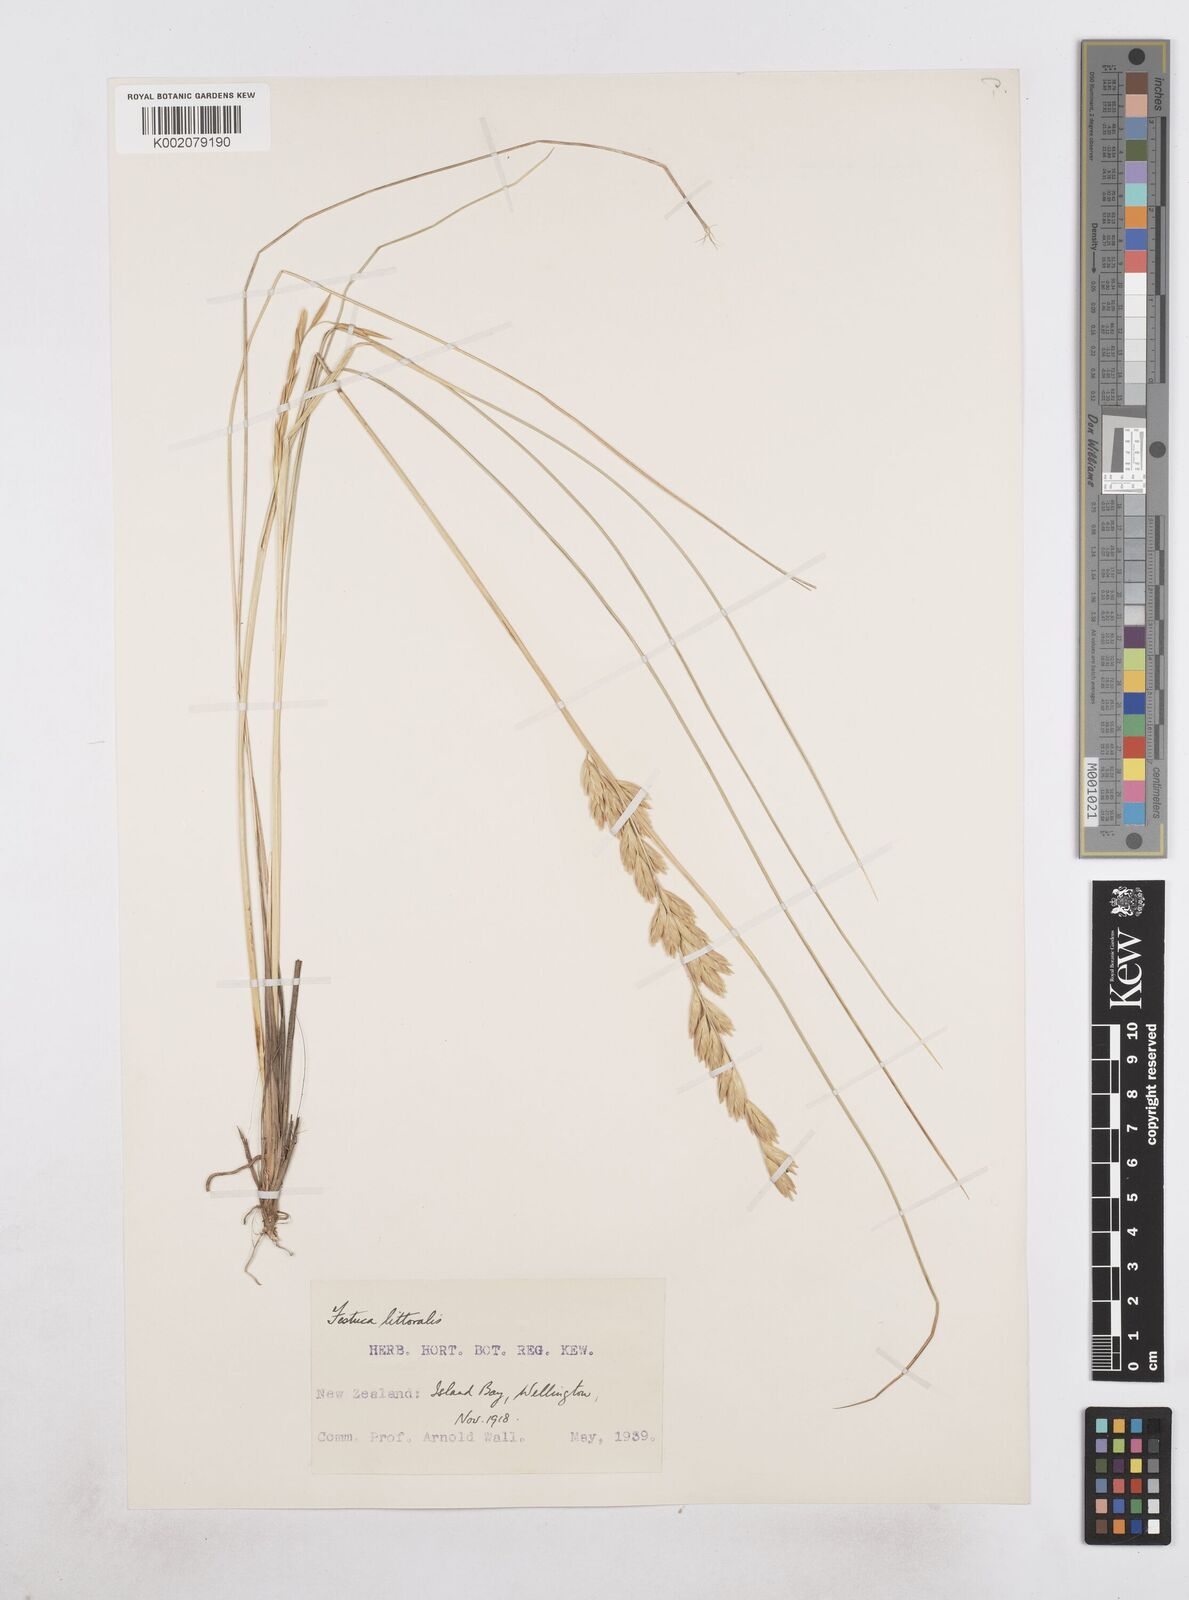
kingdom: Plantae
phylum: Tracheophyta
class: Liliopsida
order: Poales
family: Poaceae
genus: Poa
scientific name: Poa triodioides
